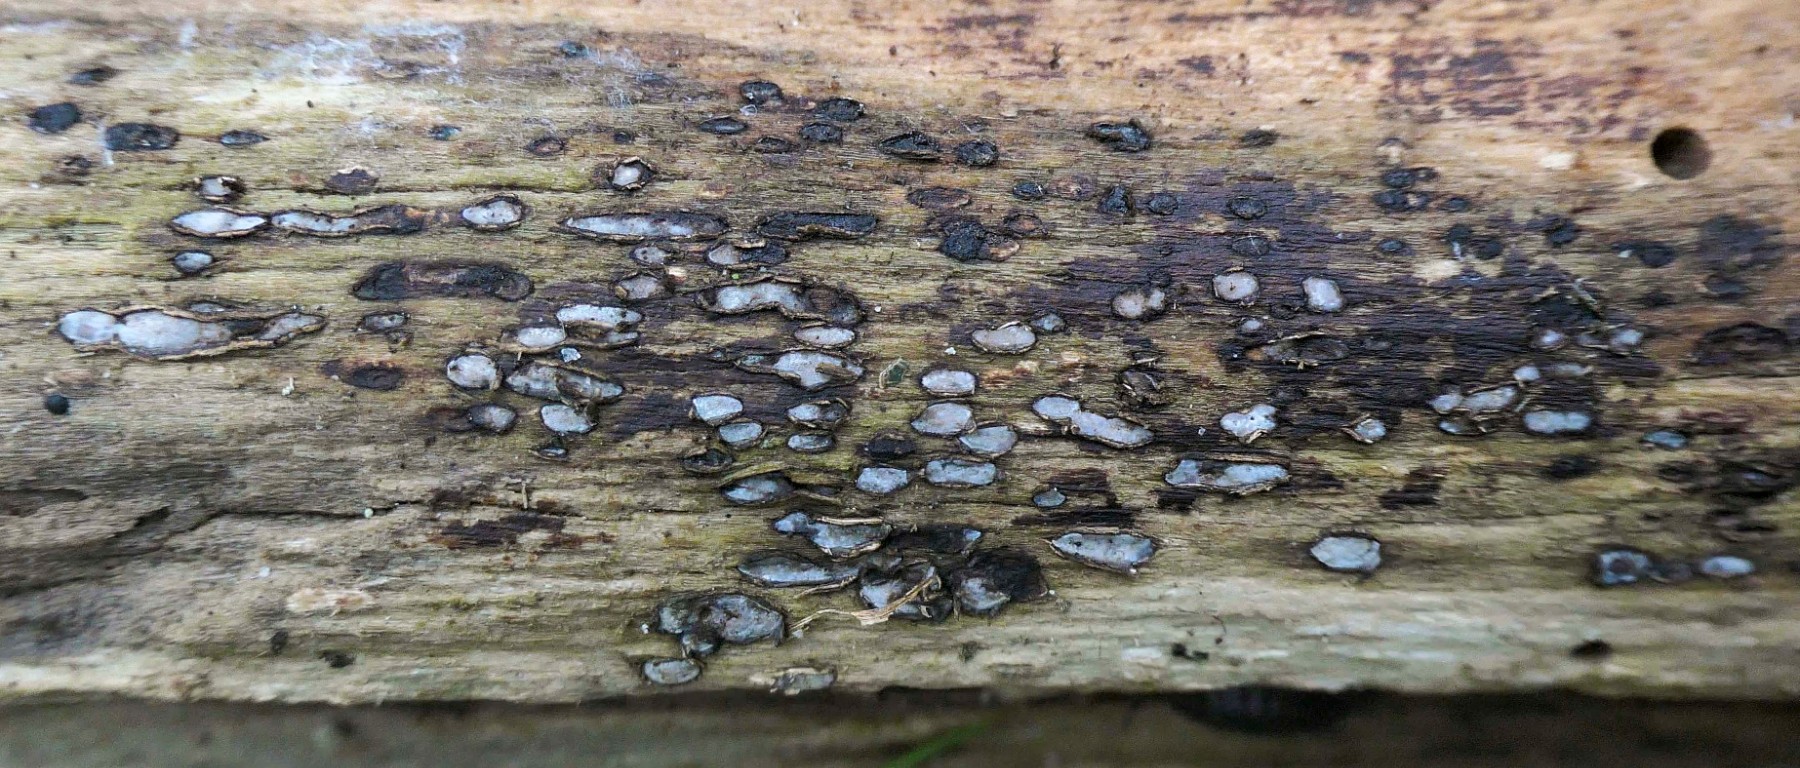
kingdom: Fungi
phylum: Ascomycota
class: Leotiomycetes
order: Chaetomellales
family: Marthamycetaceae
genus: Propolis
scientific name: Propolis farinosa
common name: almindelig vedsprængerskive
